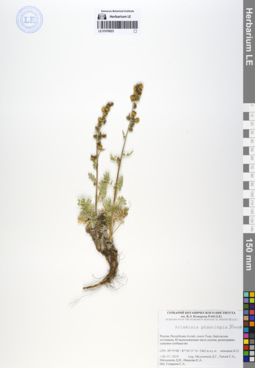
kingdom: Plantae
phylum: Tracheophyta
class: Magnoliopsida
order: Asterales
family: Asteraceae
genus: Artemisia
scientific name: Artemisia phaeolepis
